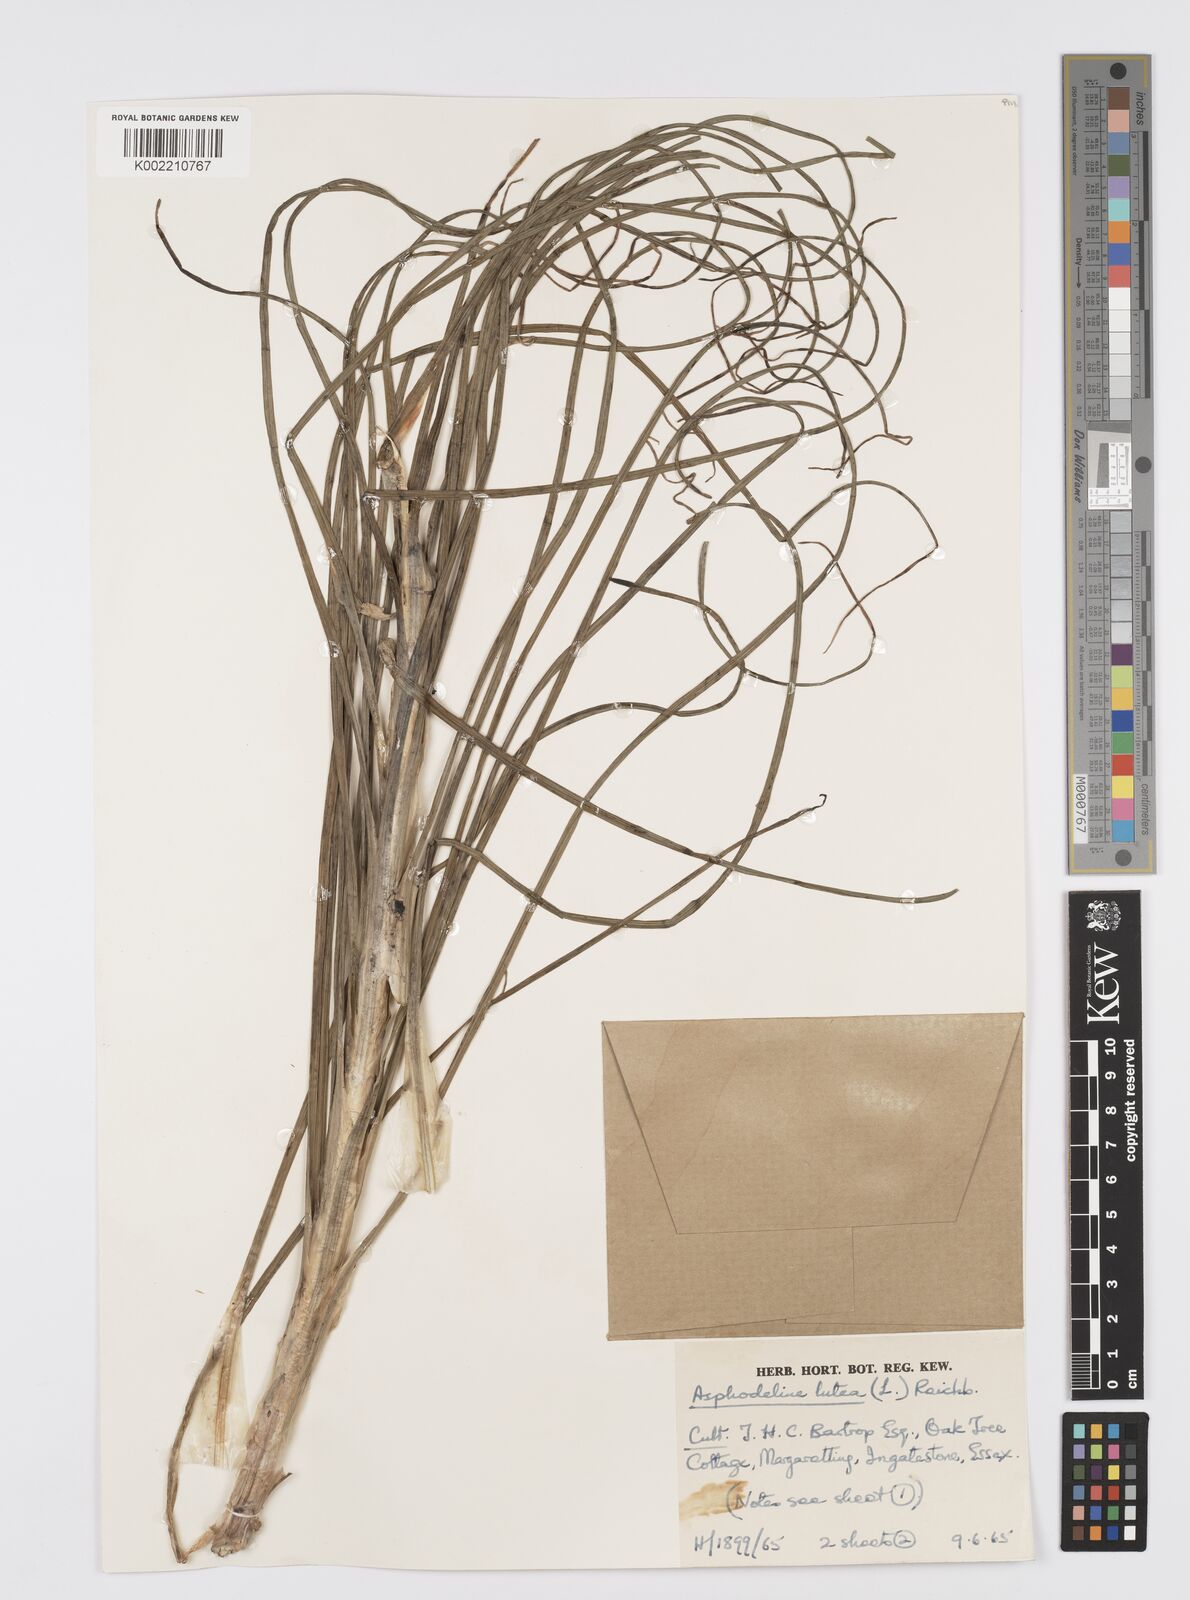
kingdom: Plantae
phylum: Tracheophyta
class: Liliopsida
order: Asparagales
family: Asphodelaceae
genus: Asphodeline
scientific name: Asphodeline lutea
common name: Yellow asphodel
